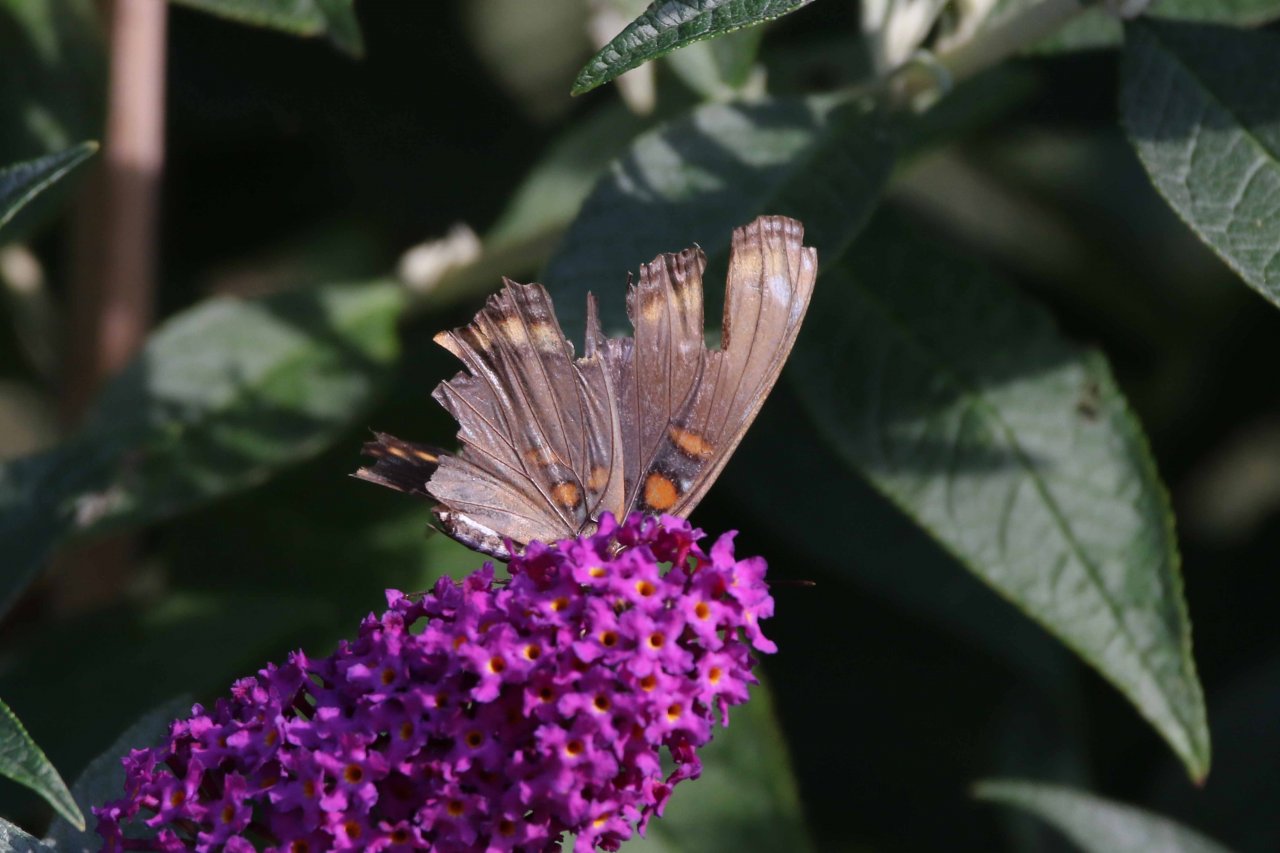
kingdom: Animalia
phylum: Arthropoda
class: Insecta
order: Lepidoptera
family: Nymphalidae
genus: Limenitis
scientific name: Limenitis astyanax
